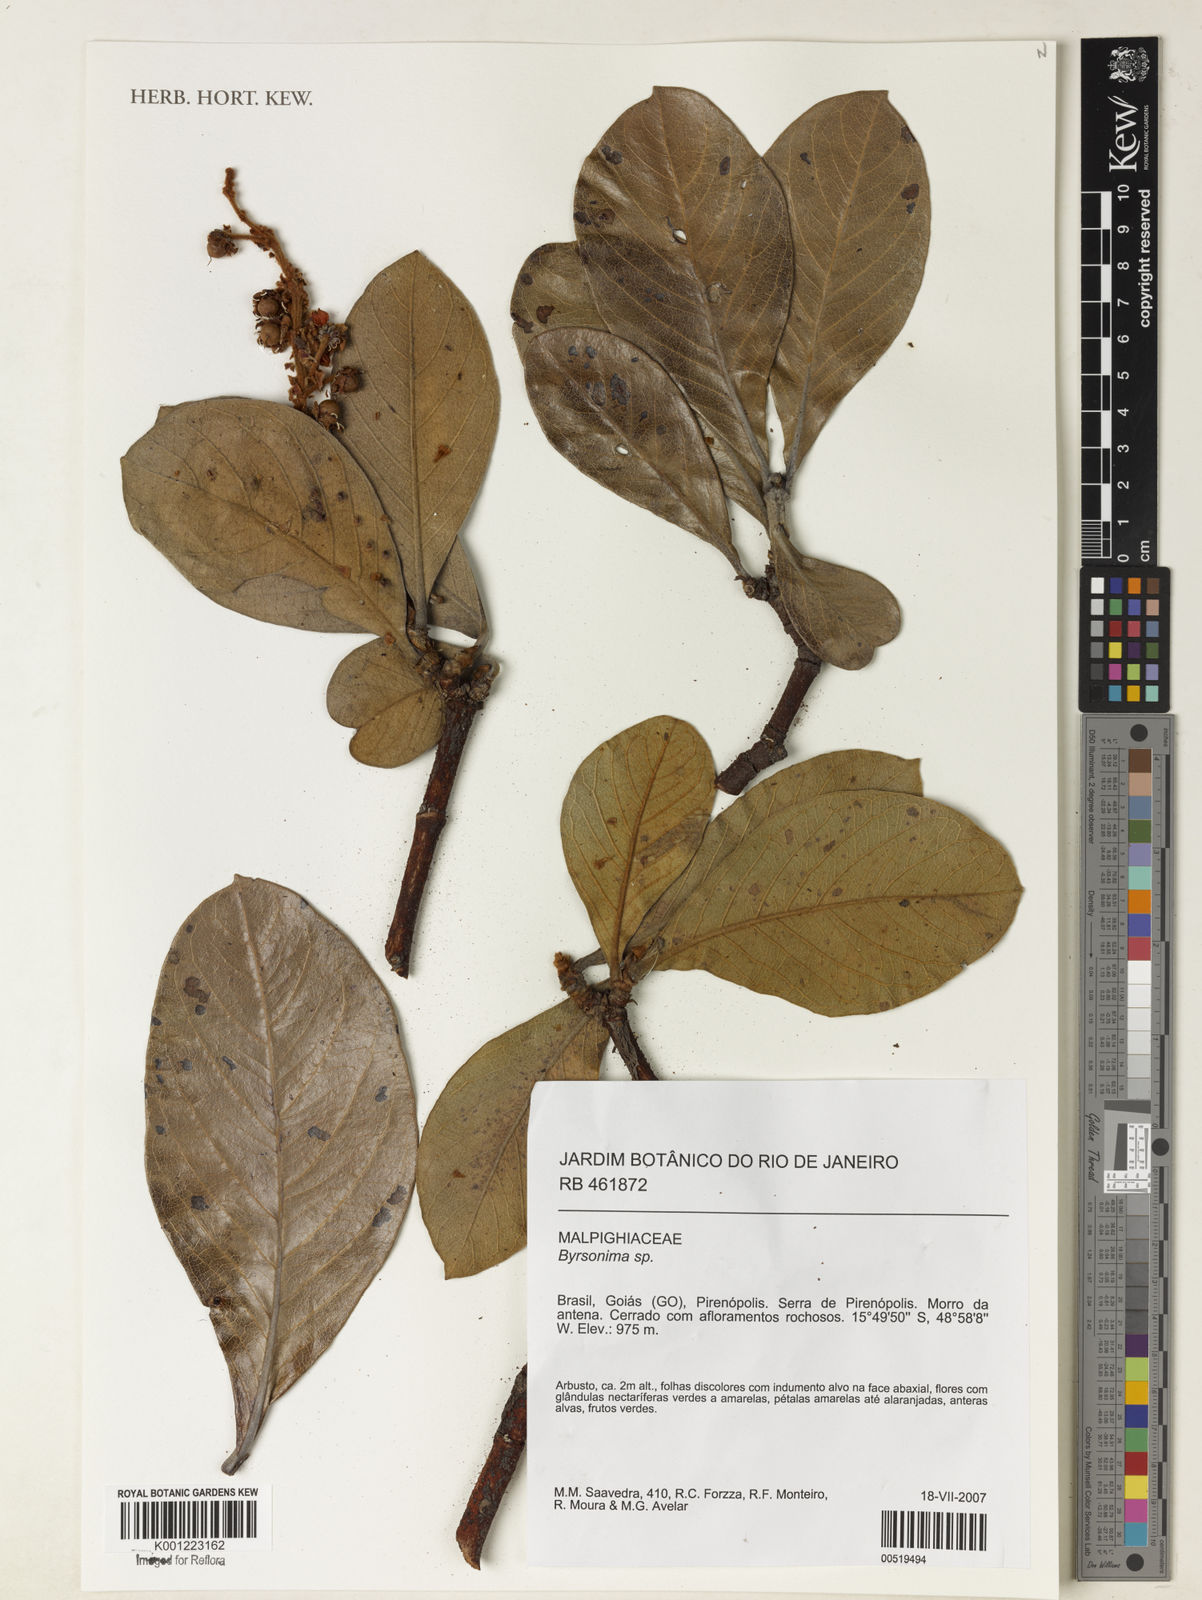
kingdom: Plantae
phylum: Tracheophyta
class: Magnoliopsida
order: Malpighiales
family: Malpighiaceae
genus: Byrsonima
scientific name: Byrsonima
